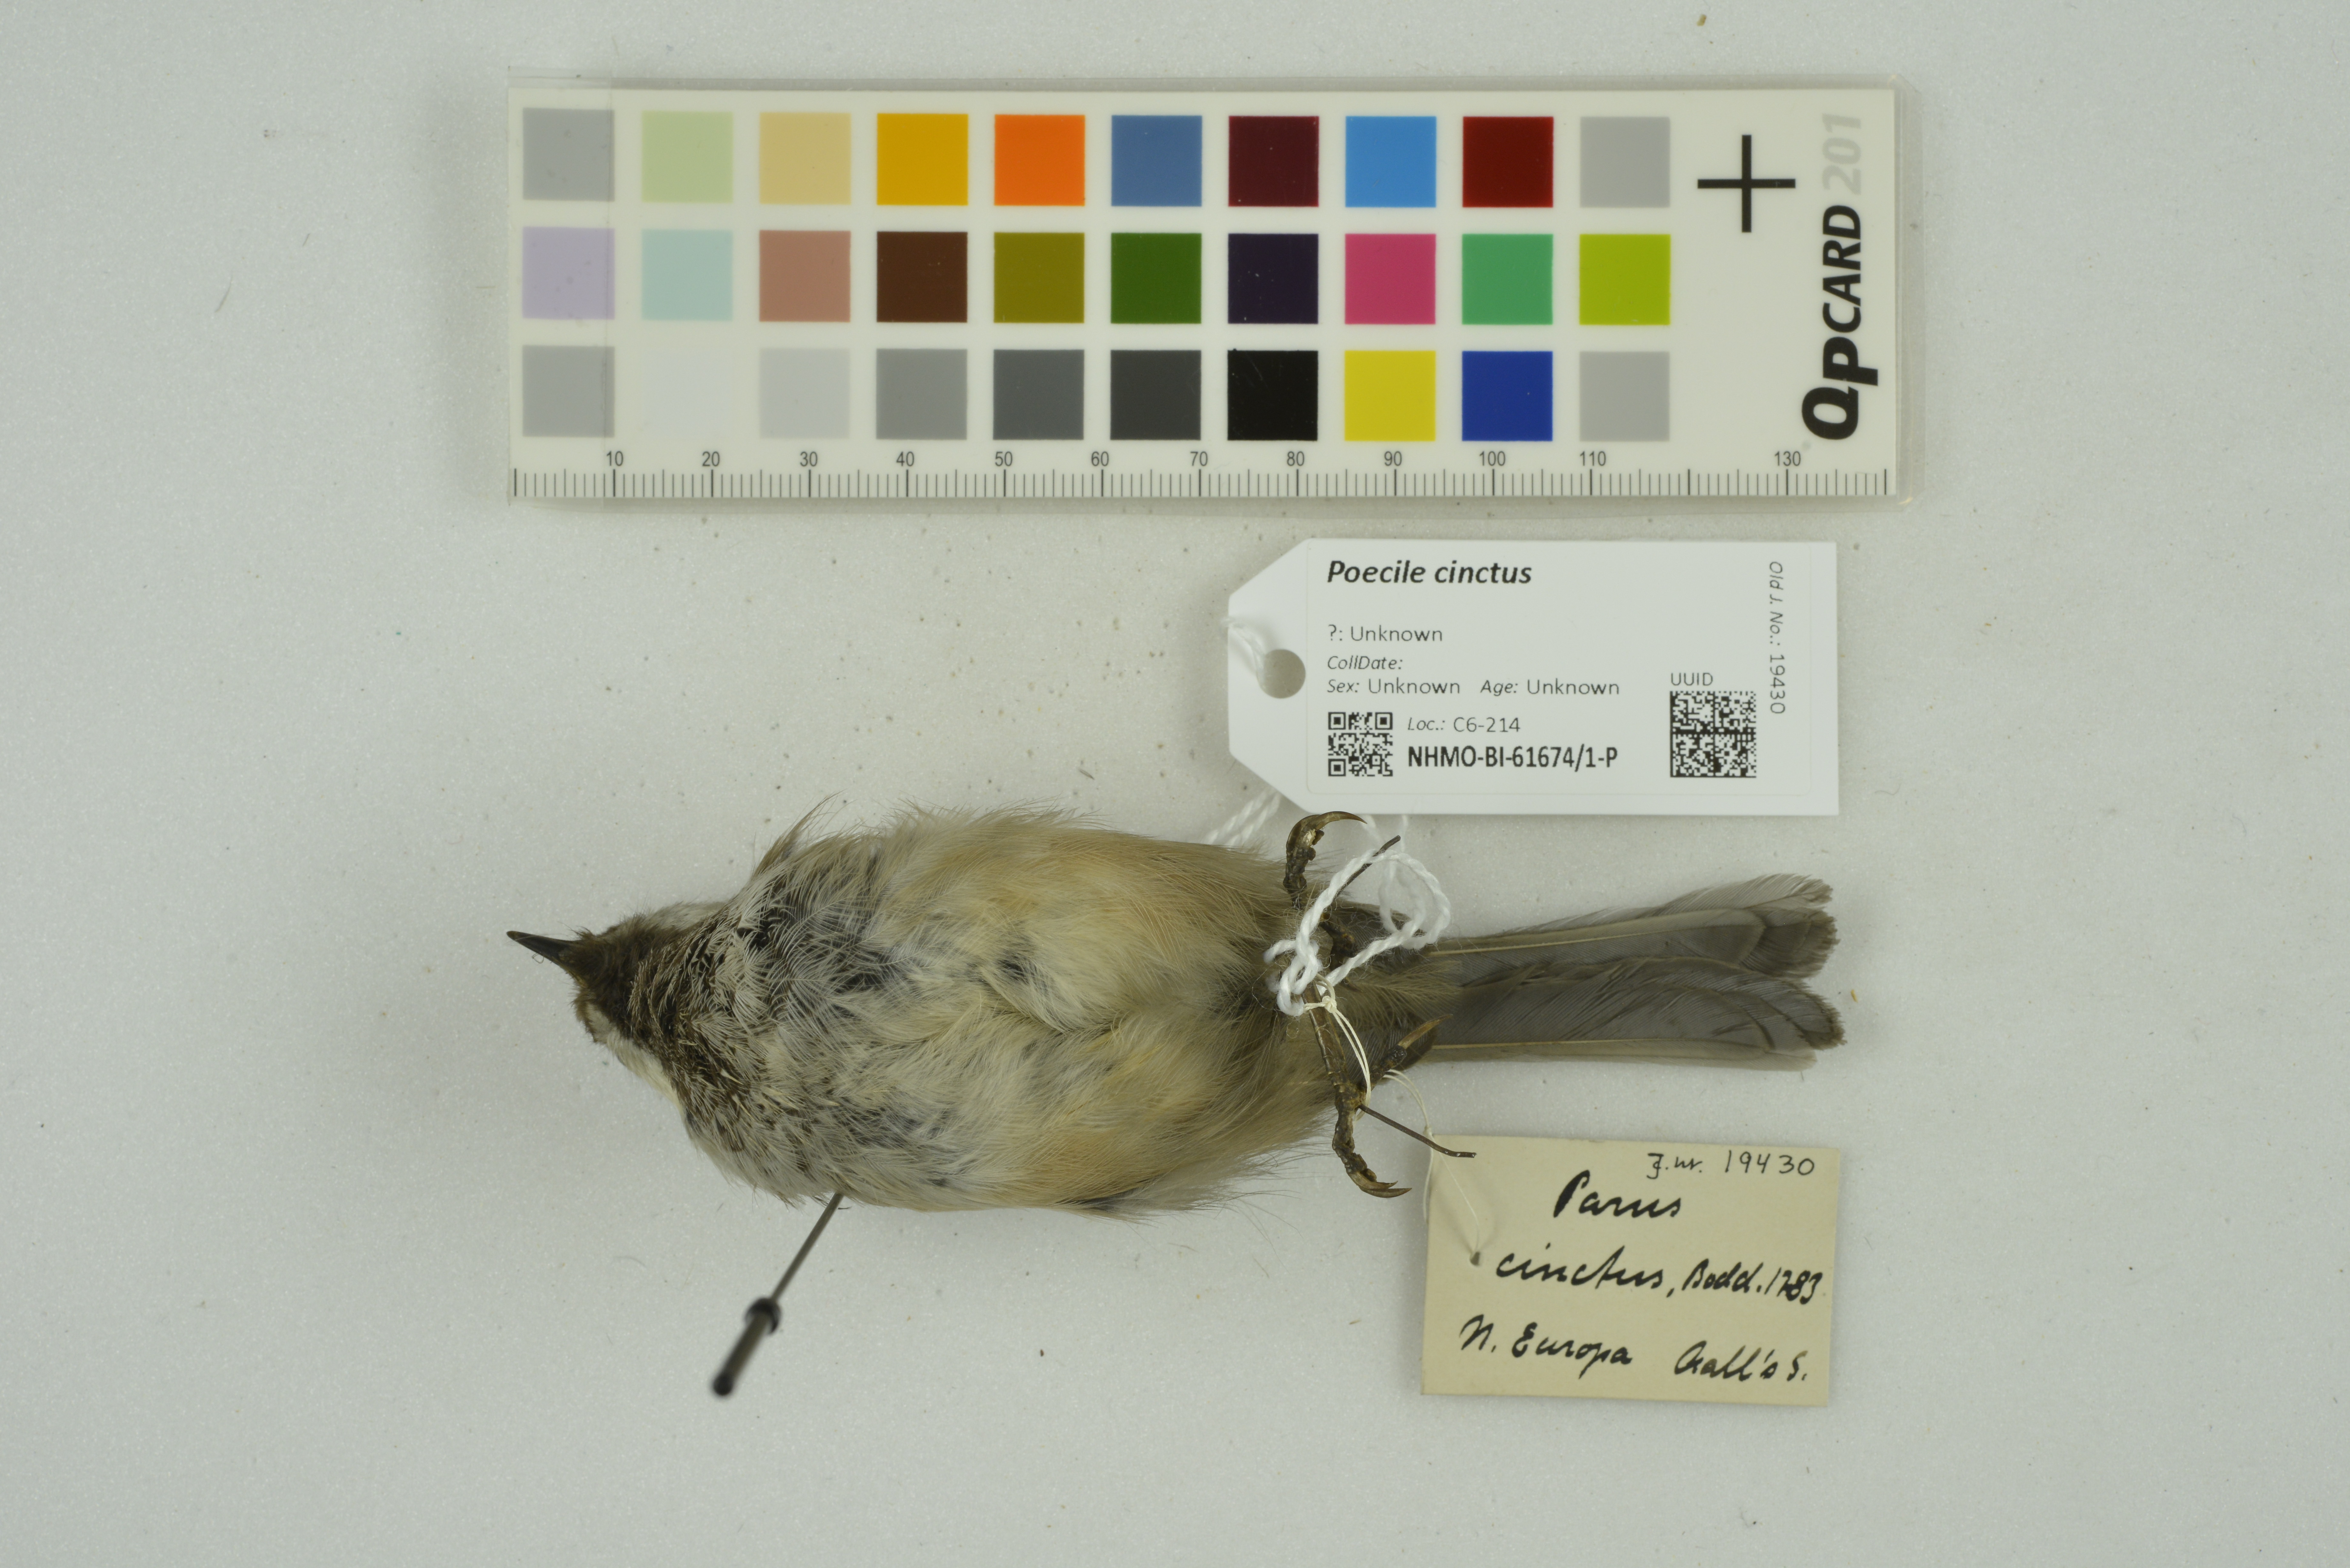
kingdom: Animalia
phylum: Chordata
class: Aves
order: Passeriformes
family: Paridae
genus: Poecile
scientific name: Poecile cinctus
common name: Gray-headed chickadee
